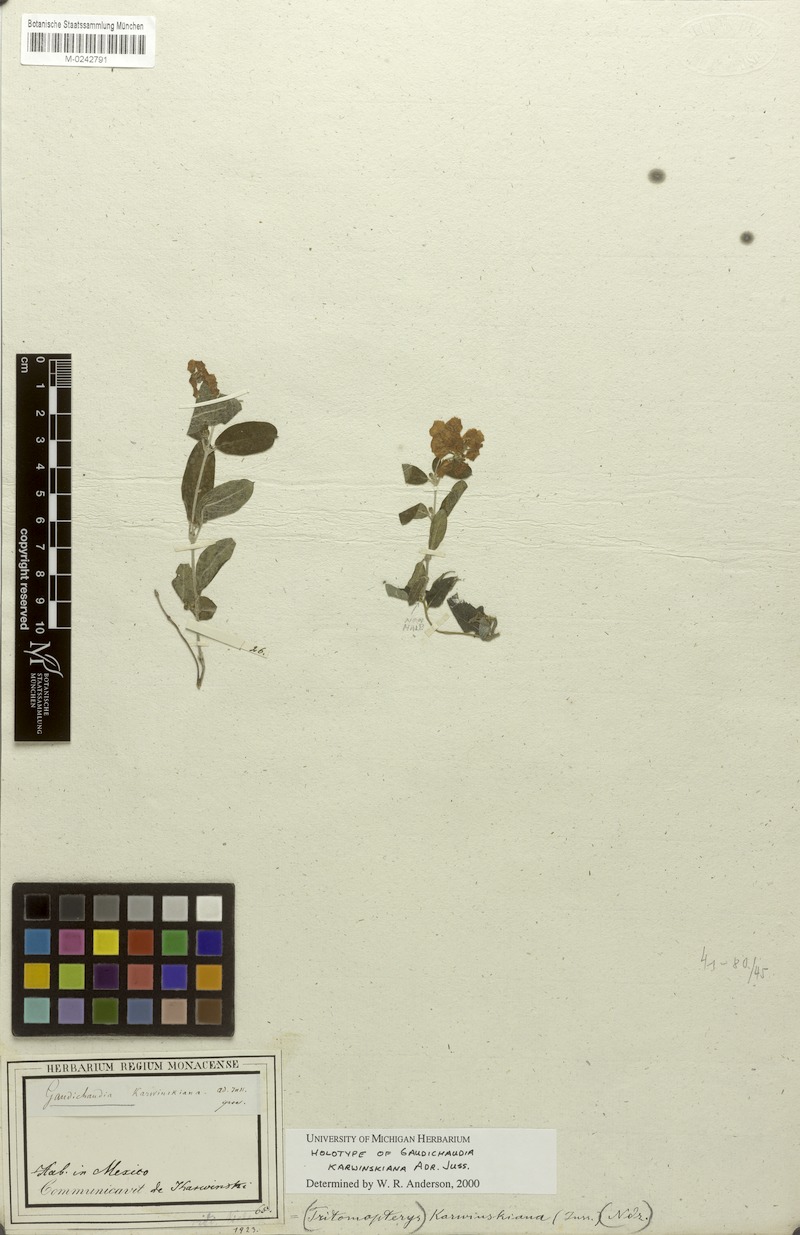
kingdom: Plantae
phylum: Tracheophyta
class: Magnoliopsida
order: Malpighiales
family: Malpighiaceae
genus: Gaudichaudia
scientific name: Gaudichaudia karwinskiana
